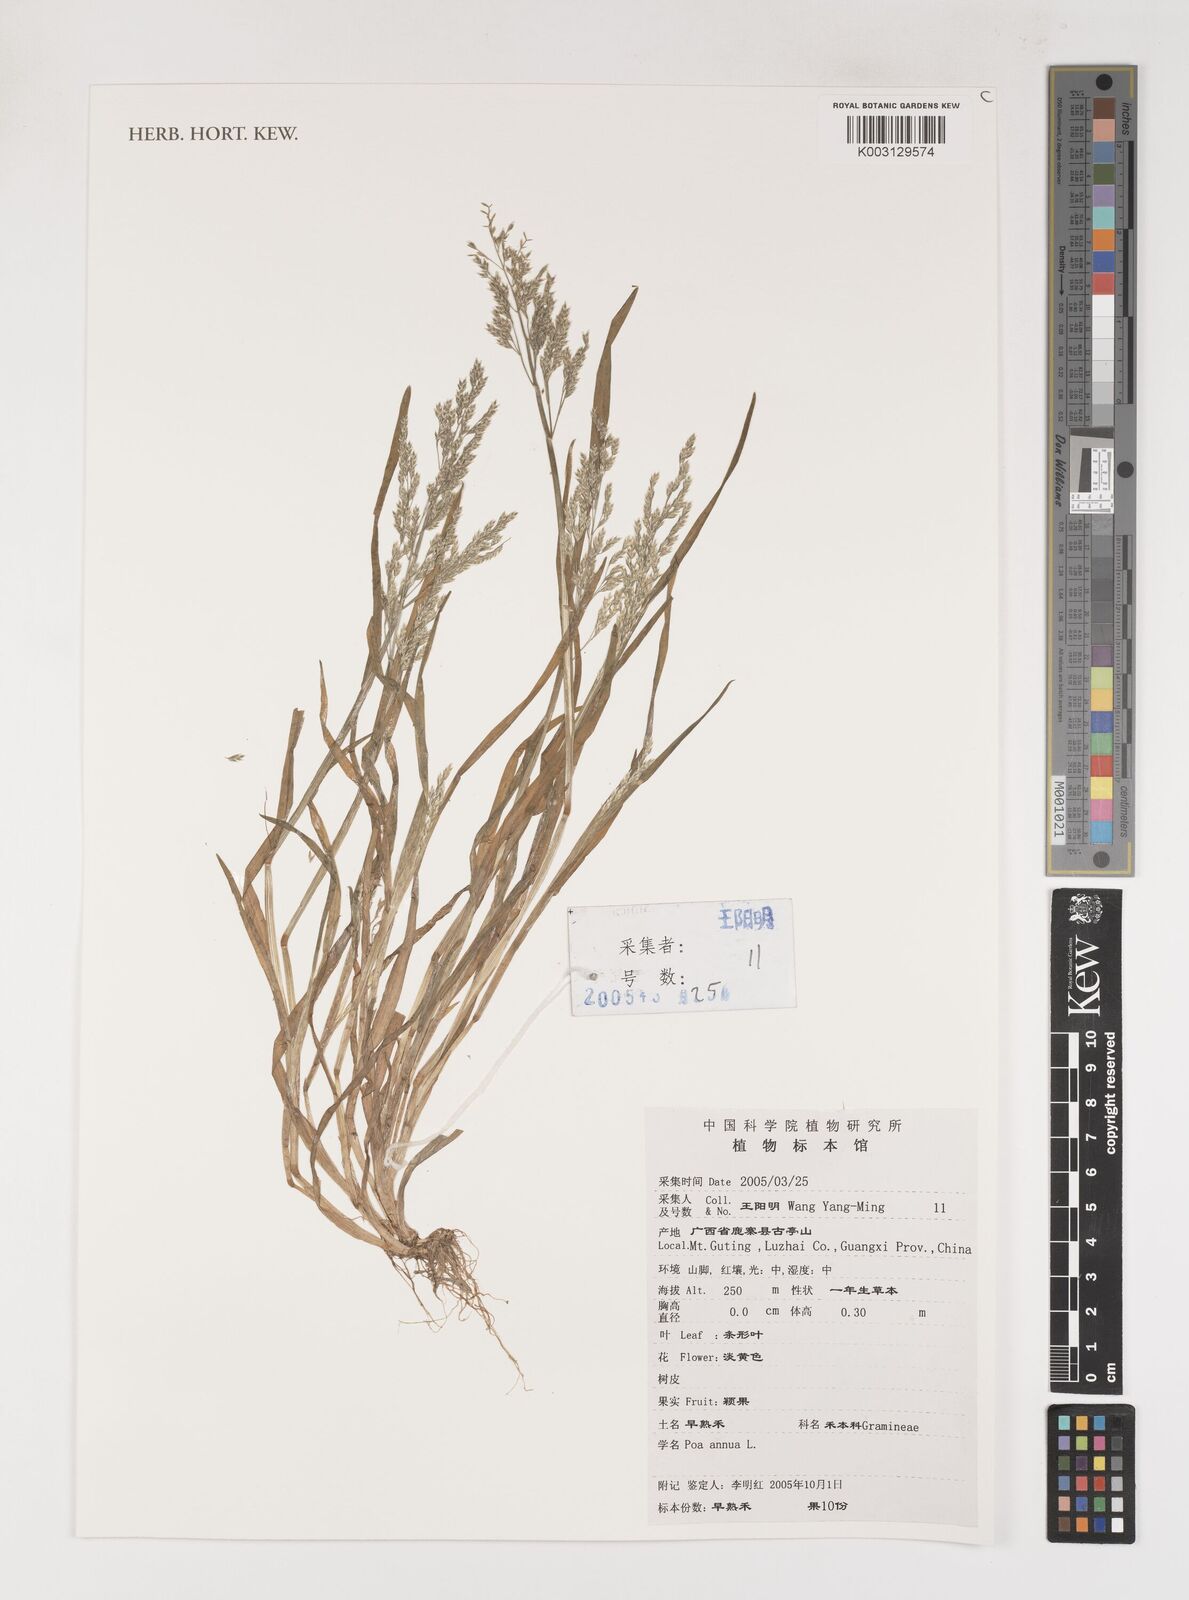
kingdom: Plantae
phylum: Tracheophyta
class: Liliopsida
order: Poales
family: Poaceae
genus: Poa
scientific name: Poa annua
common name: Annual bluegrass
